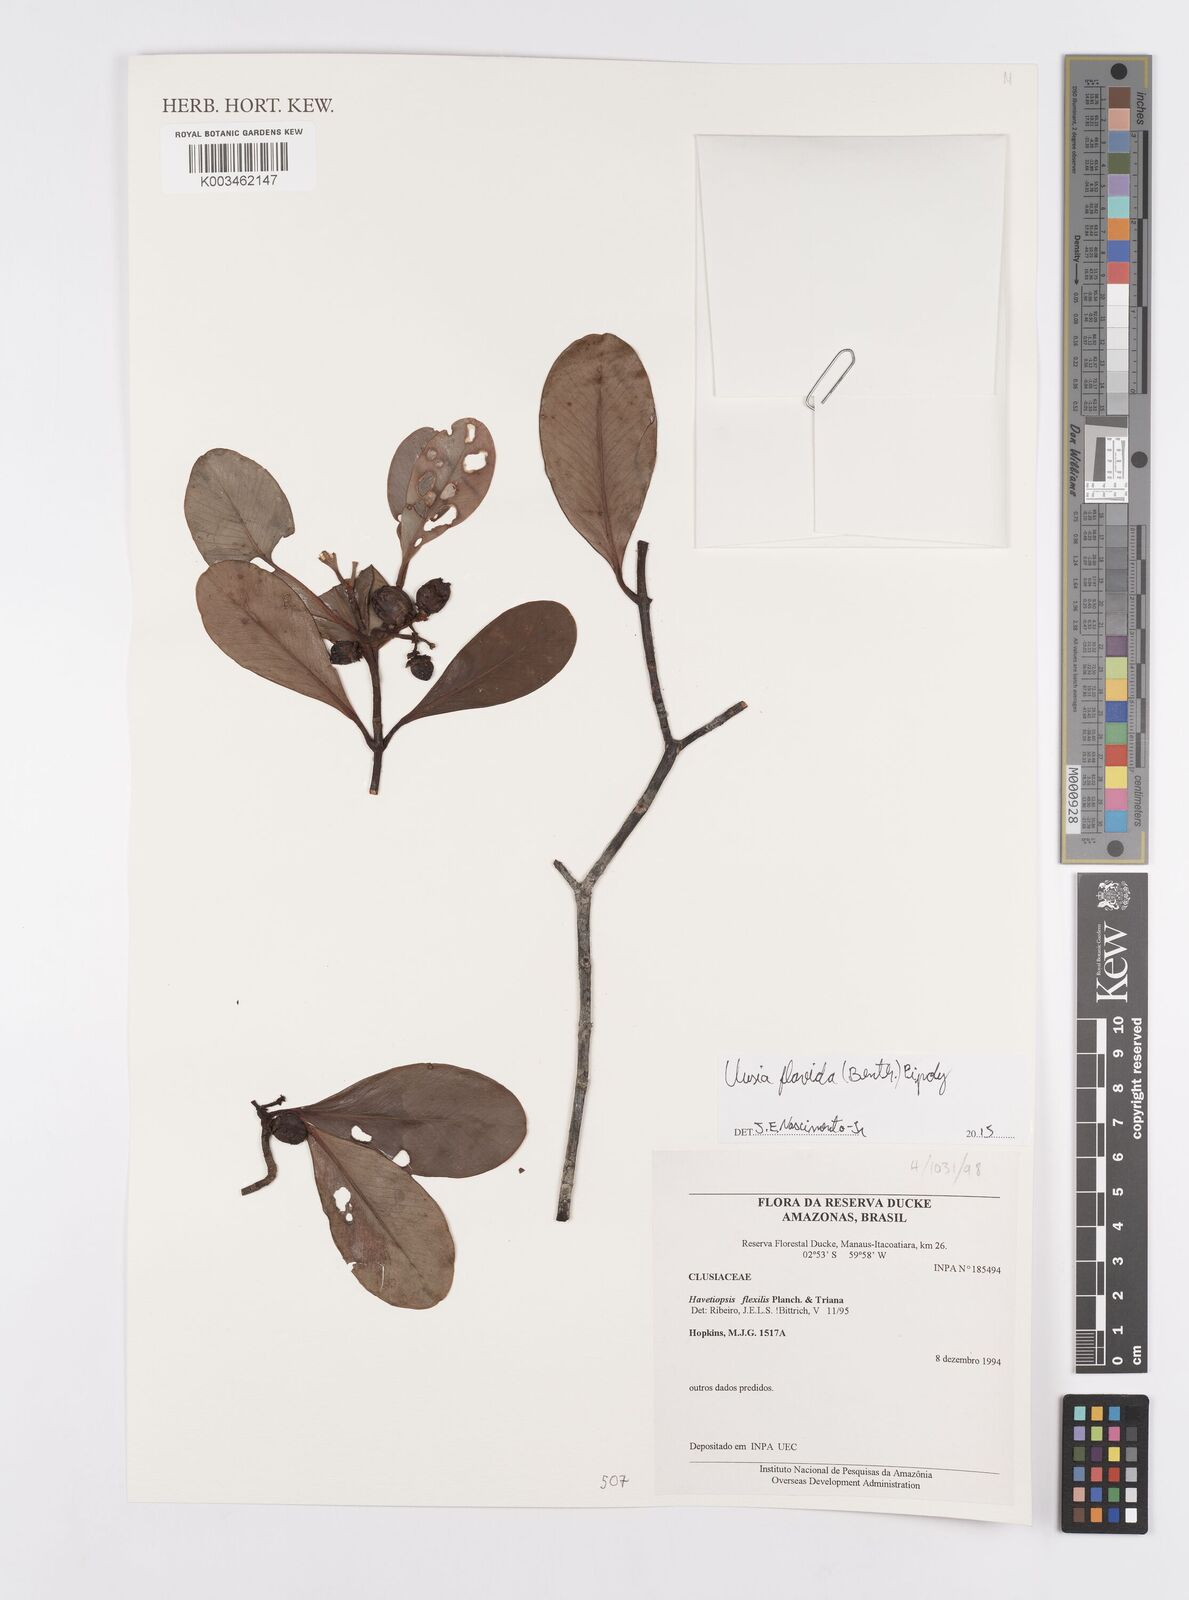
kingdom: Plantae
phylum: Tracheophyta
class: Magnoliopsida
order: Malpighiales
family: Clusiaceae
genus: Clusia
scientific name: Clusia flavida
